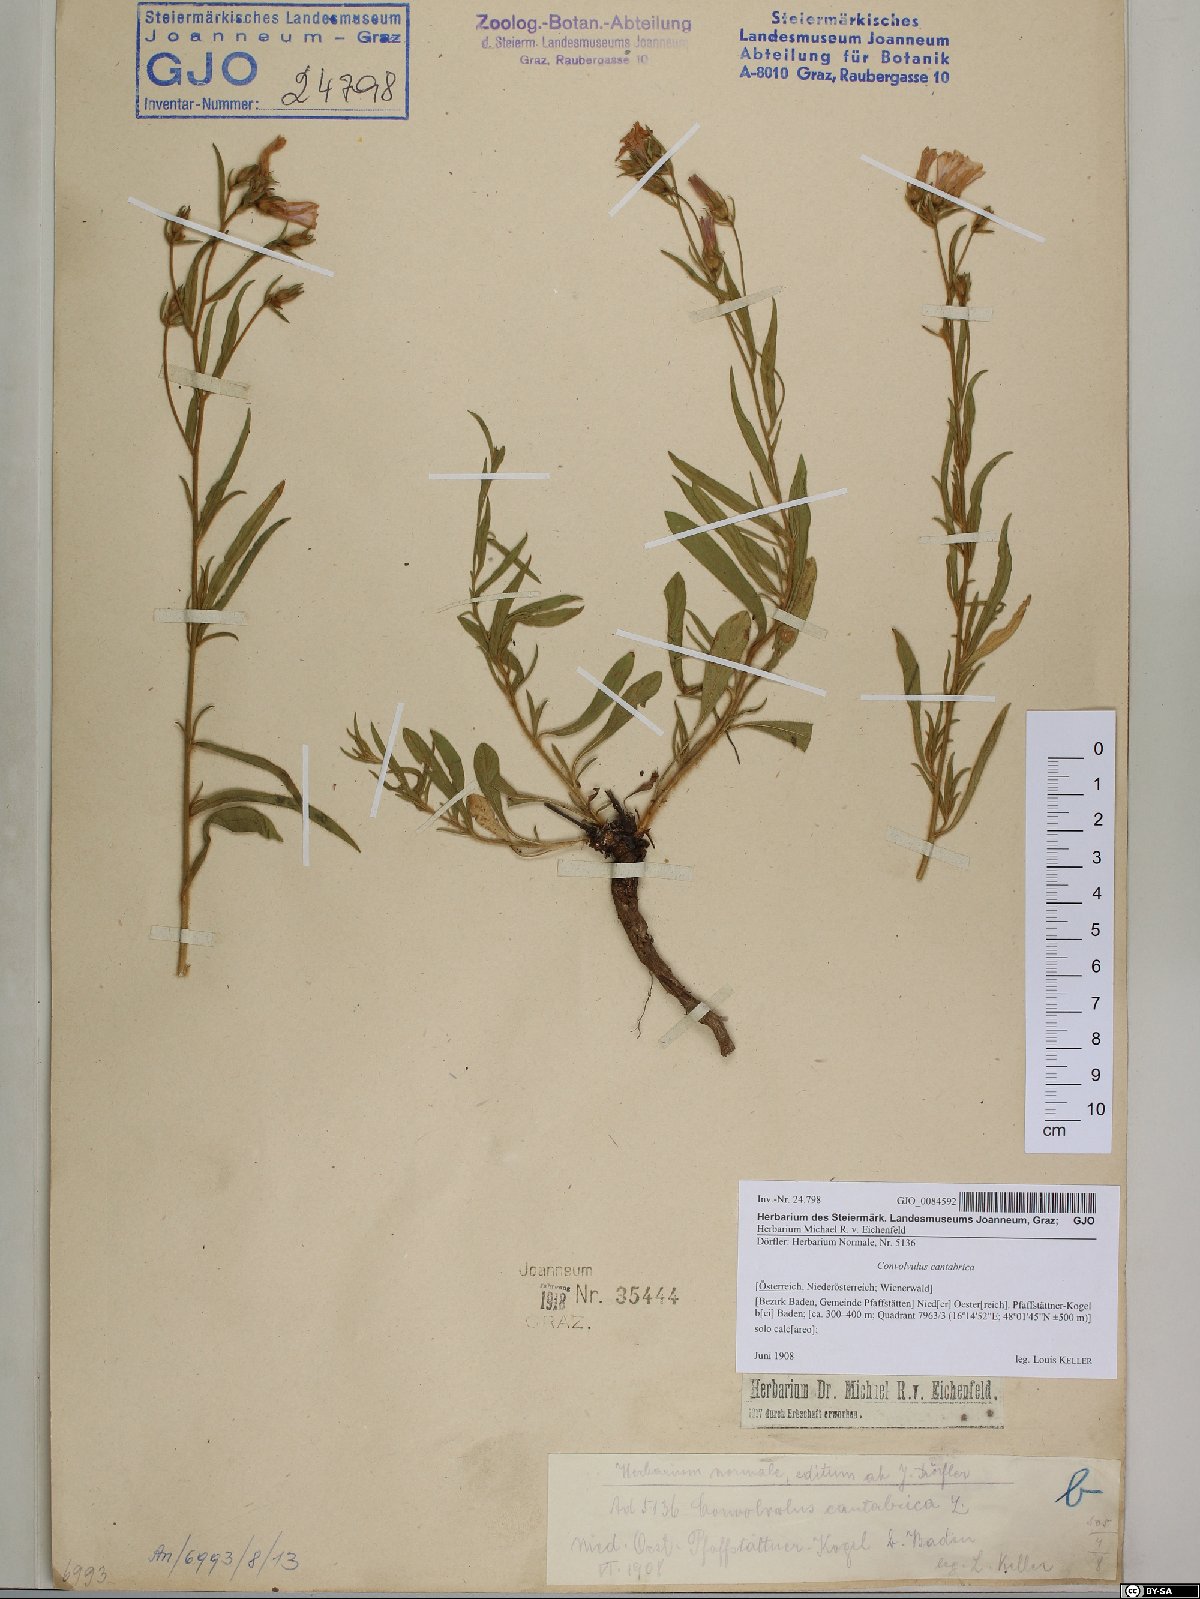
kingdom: Plantae
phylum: Tracheophyta
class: Magnoliopsida
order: Solanales
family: Convolvulaceae
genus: Convolvulus
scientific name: Convolvulus cantabrica
